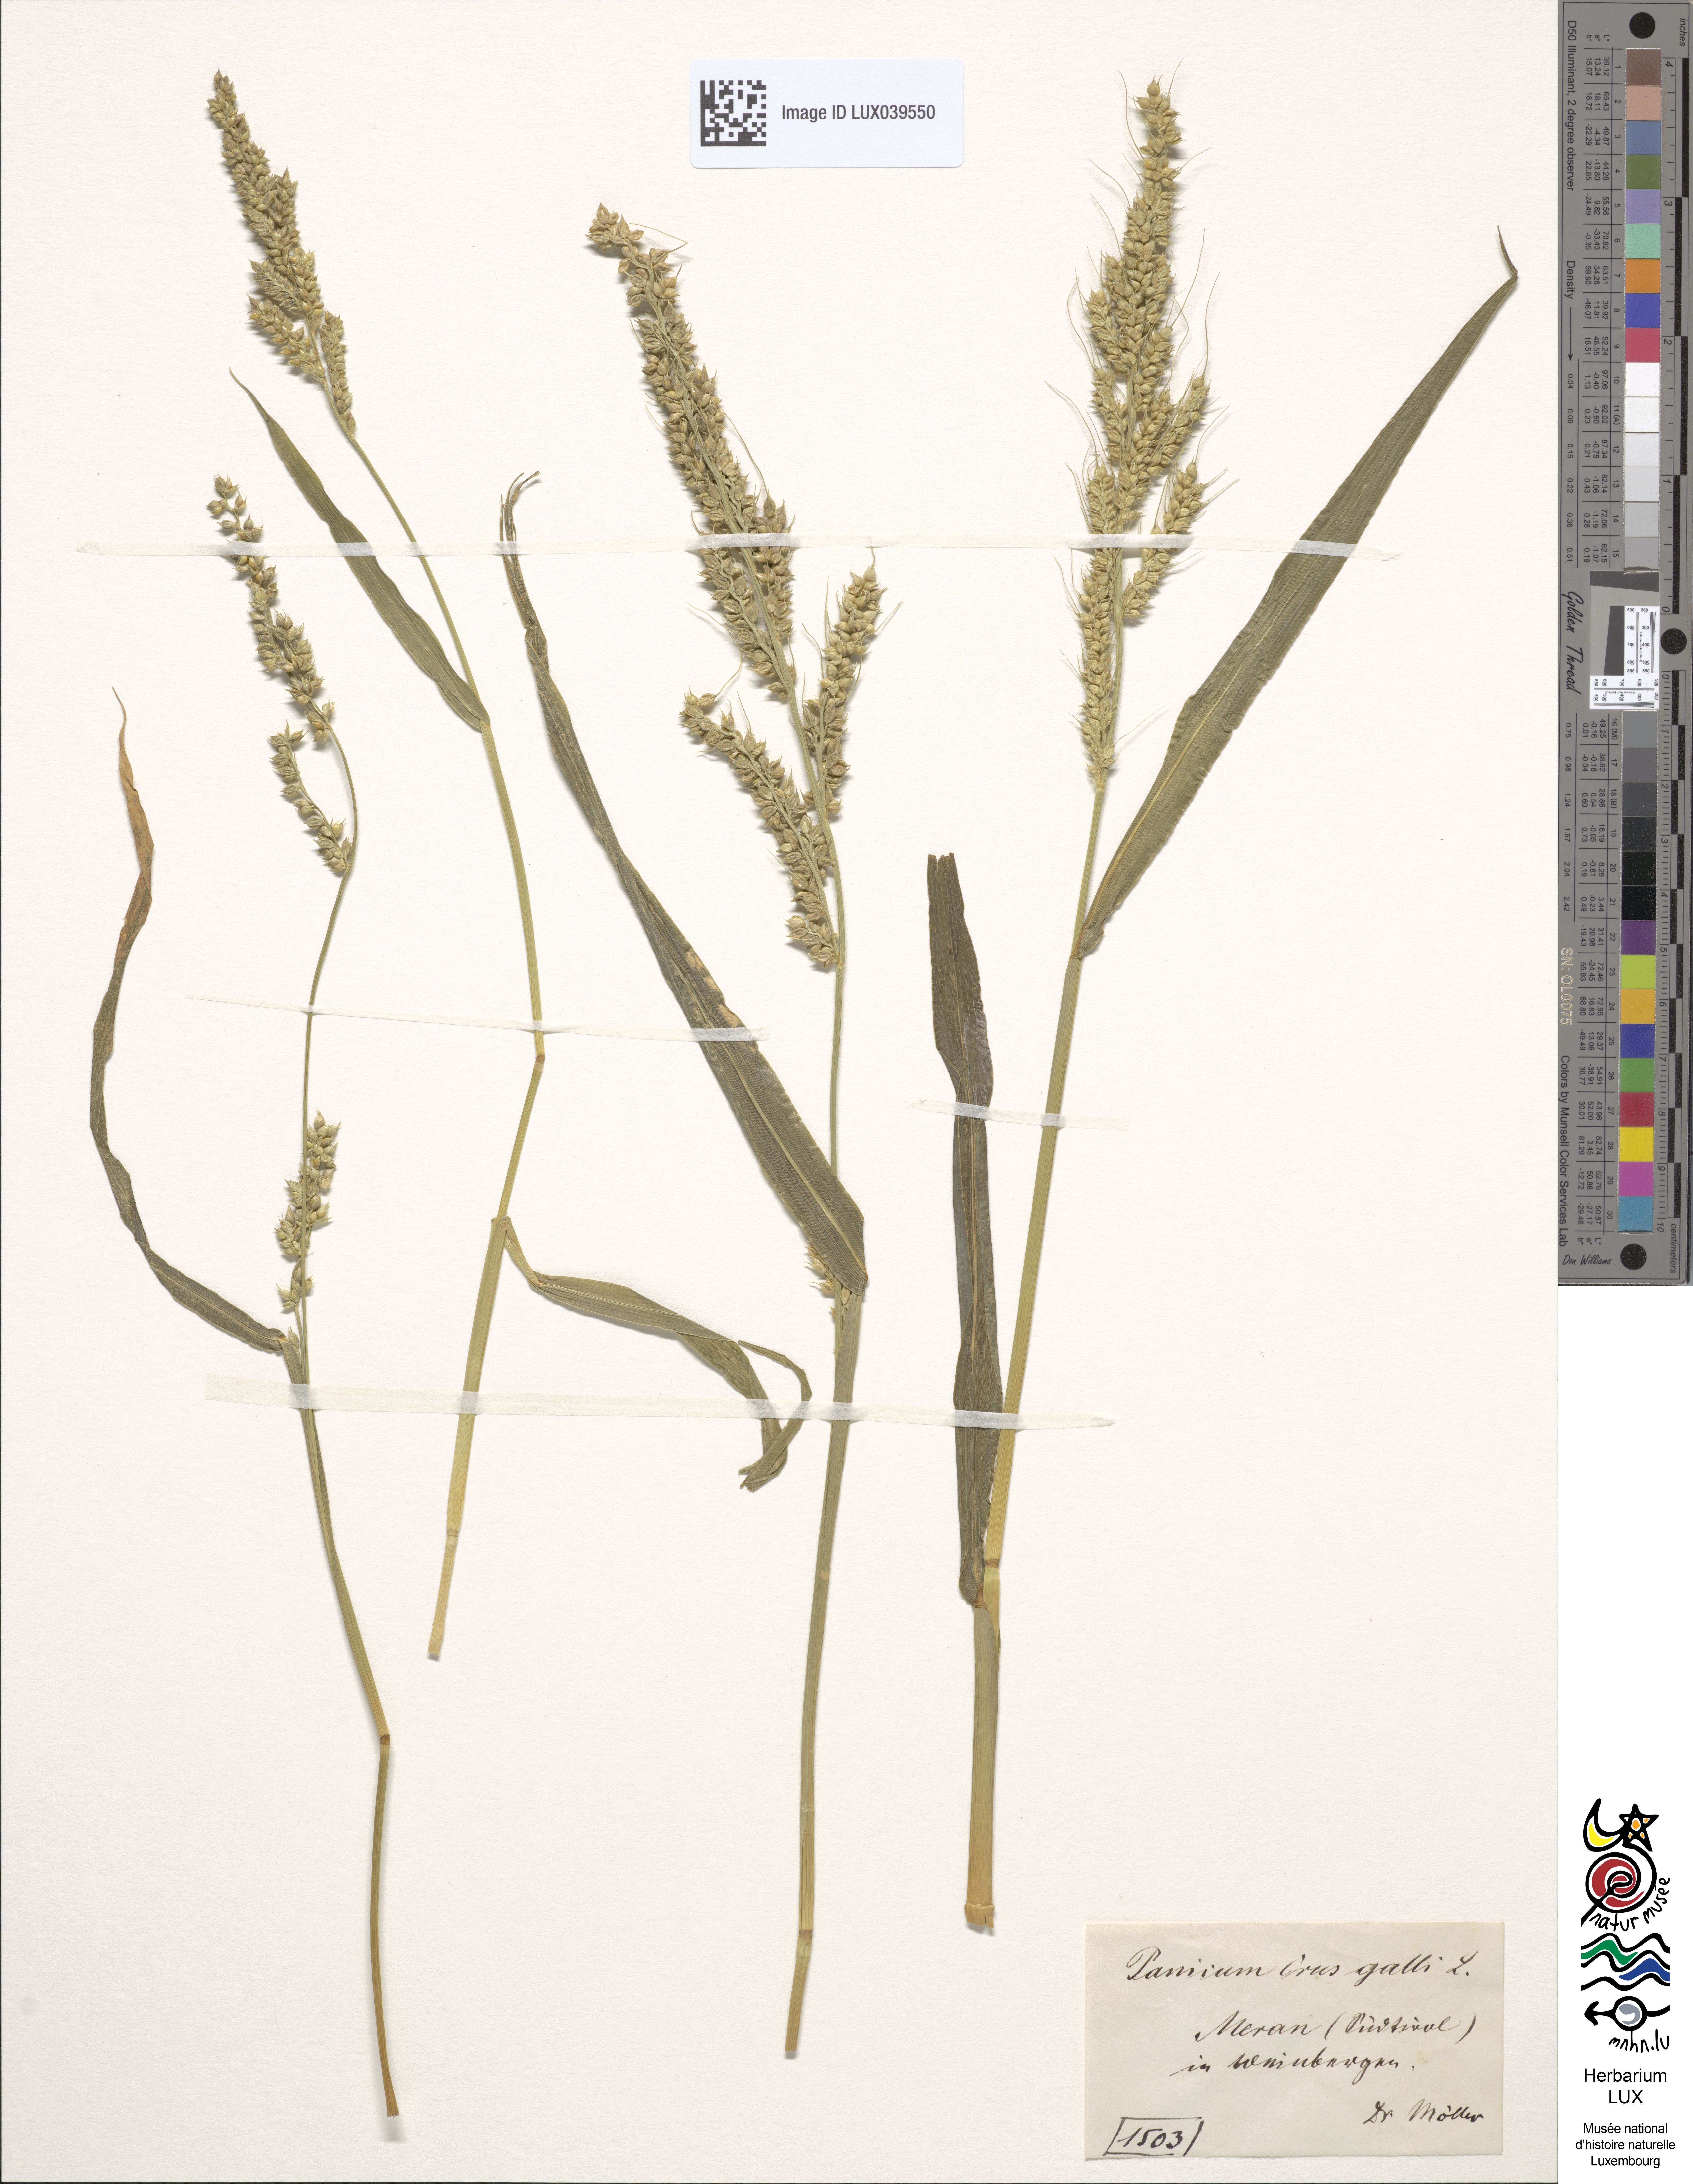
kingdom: Plantae
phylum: Tracheophyta
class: Liliopsida
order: Poales
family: Poaceae
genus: Echinochloa
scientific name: Echinochloa crus-galli
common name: Cockspur
